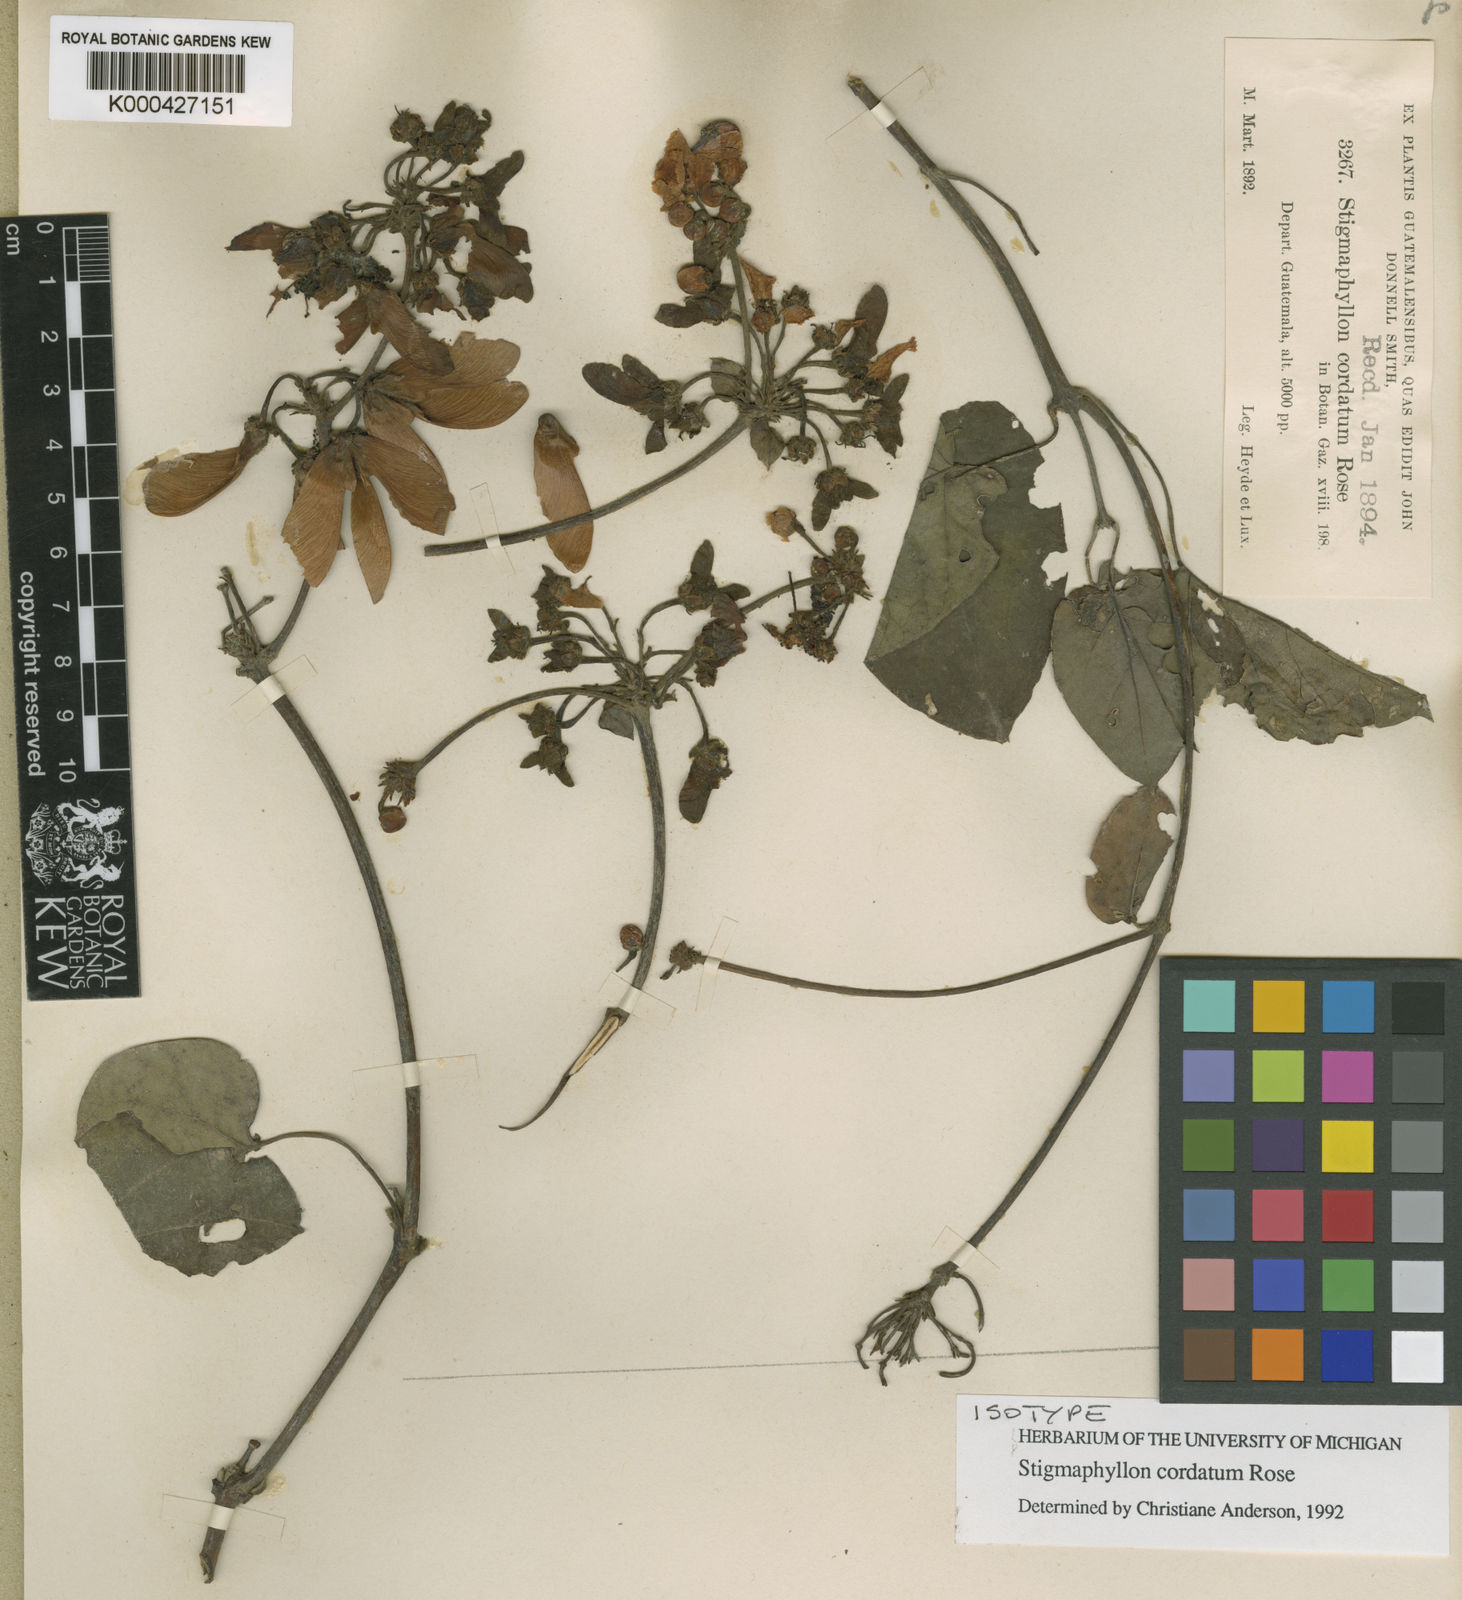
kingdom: Plantae
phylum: Tracheophyta
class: Magnoliopsida
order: Malpighiales
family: Malpighiaceae
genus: Stigmaphyllon
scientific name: Stigmaphyllon cordatum
